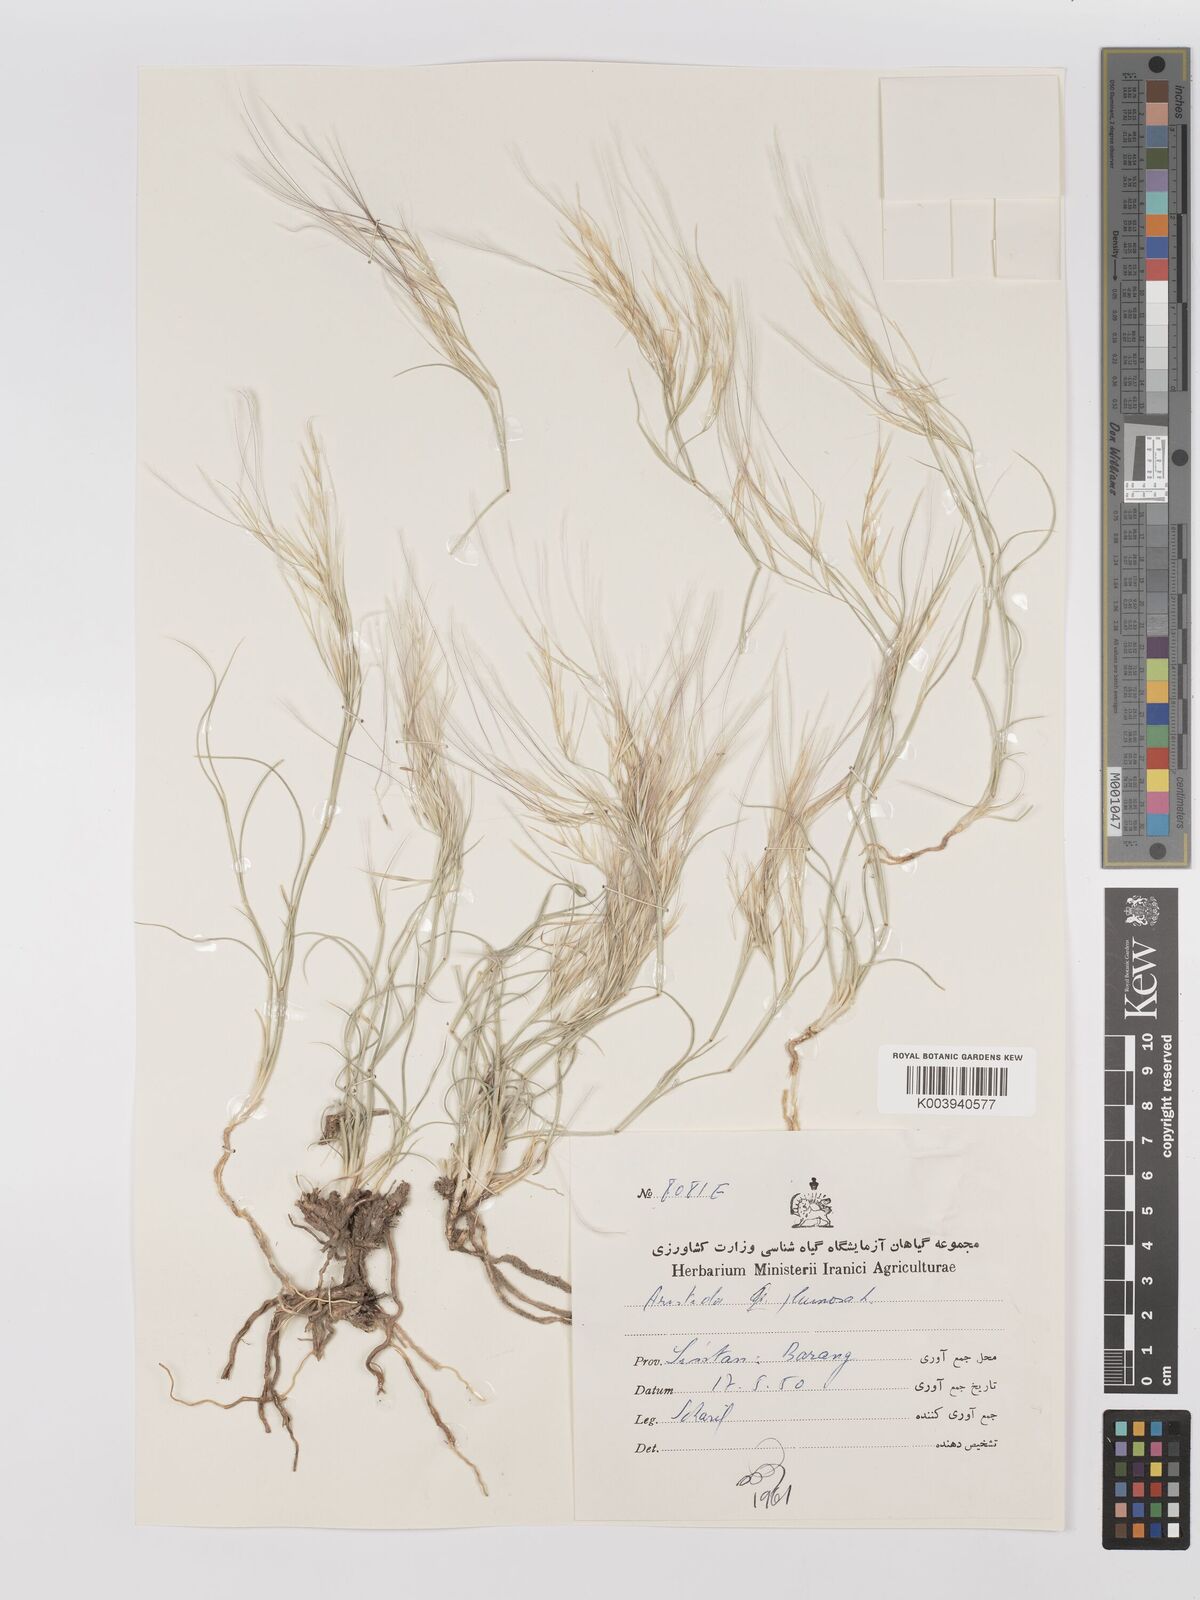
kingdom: Plantae
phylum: Tracheophyta
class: Liliopsida
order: Poales
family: Poaceae
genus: Stipagrostis
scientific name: Stipagrostis plumosa
